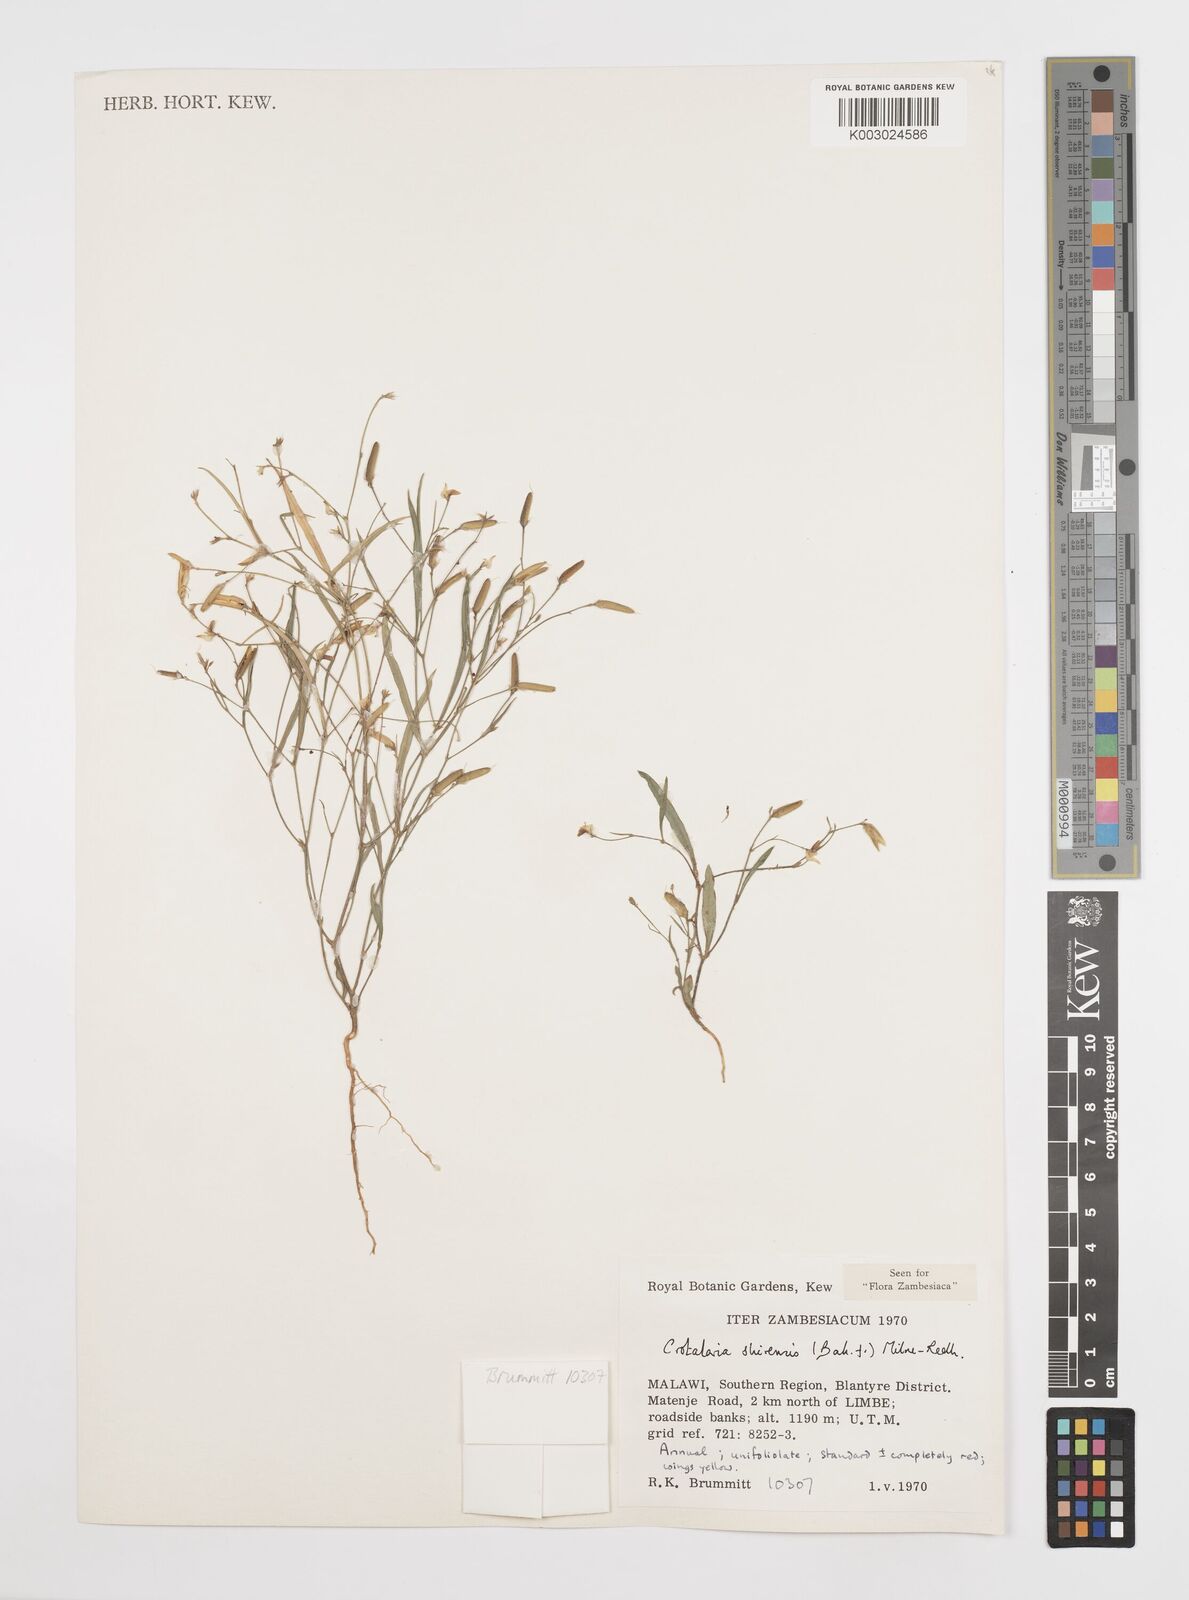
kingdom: Plantae
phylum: Tracheophyta
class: Magnoliopsida
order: Fabales
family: Fabaceae
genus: Crotalaria
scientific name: Crotalaria shirensis
